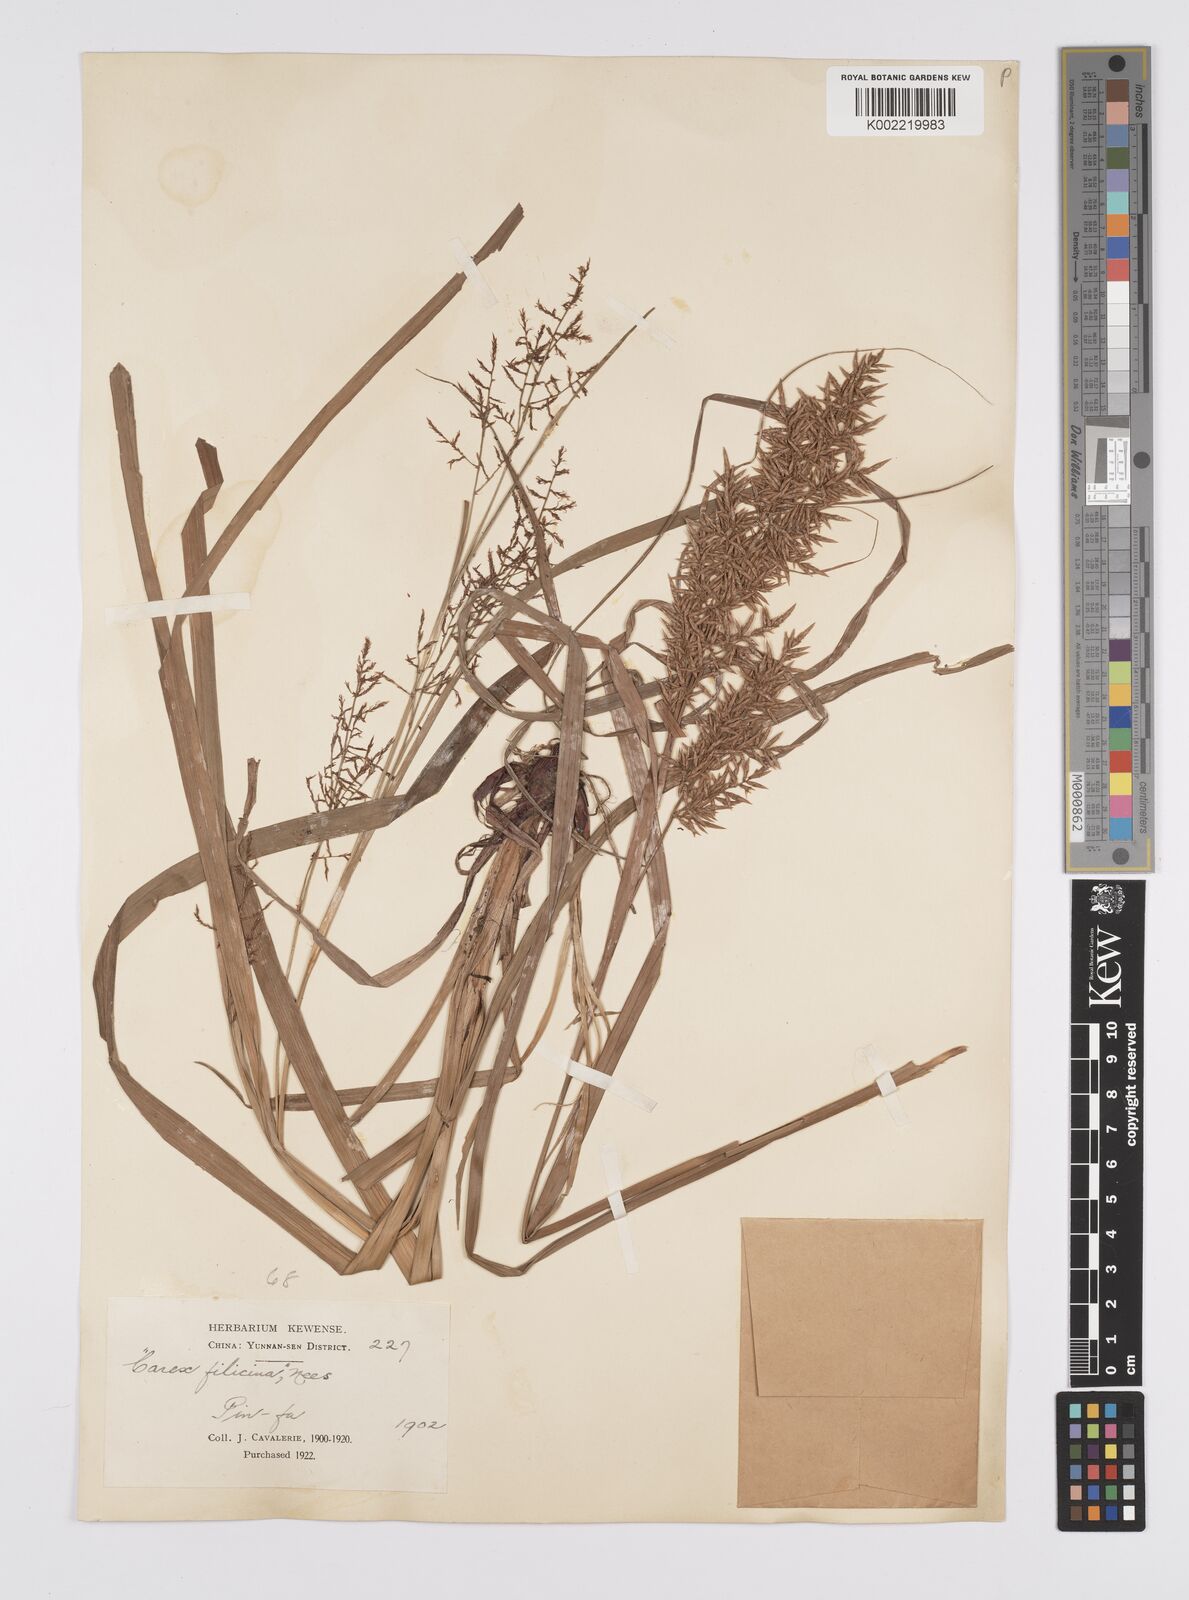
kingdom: Plantae
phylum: Tracheophyta
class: Liliopsida
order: Poales
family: Cyperaceae
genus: Carex
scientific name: Carex filicina
